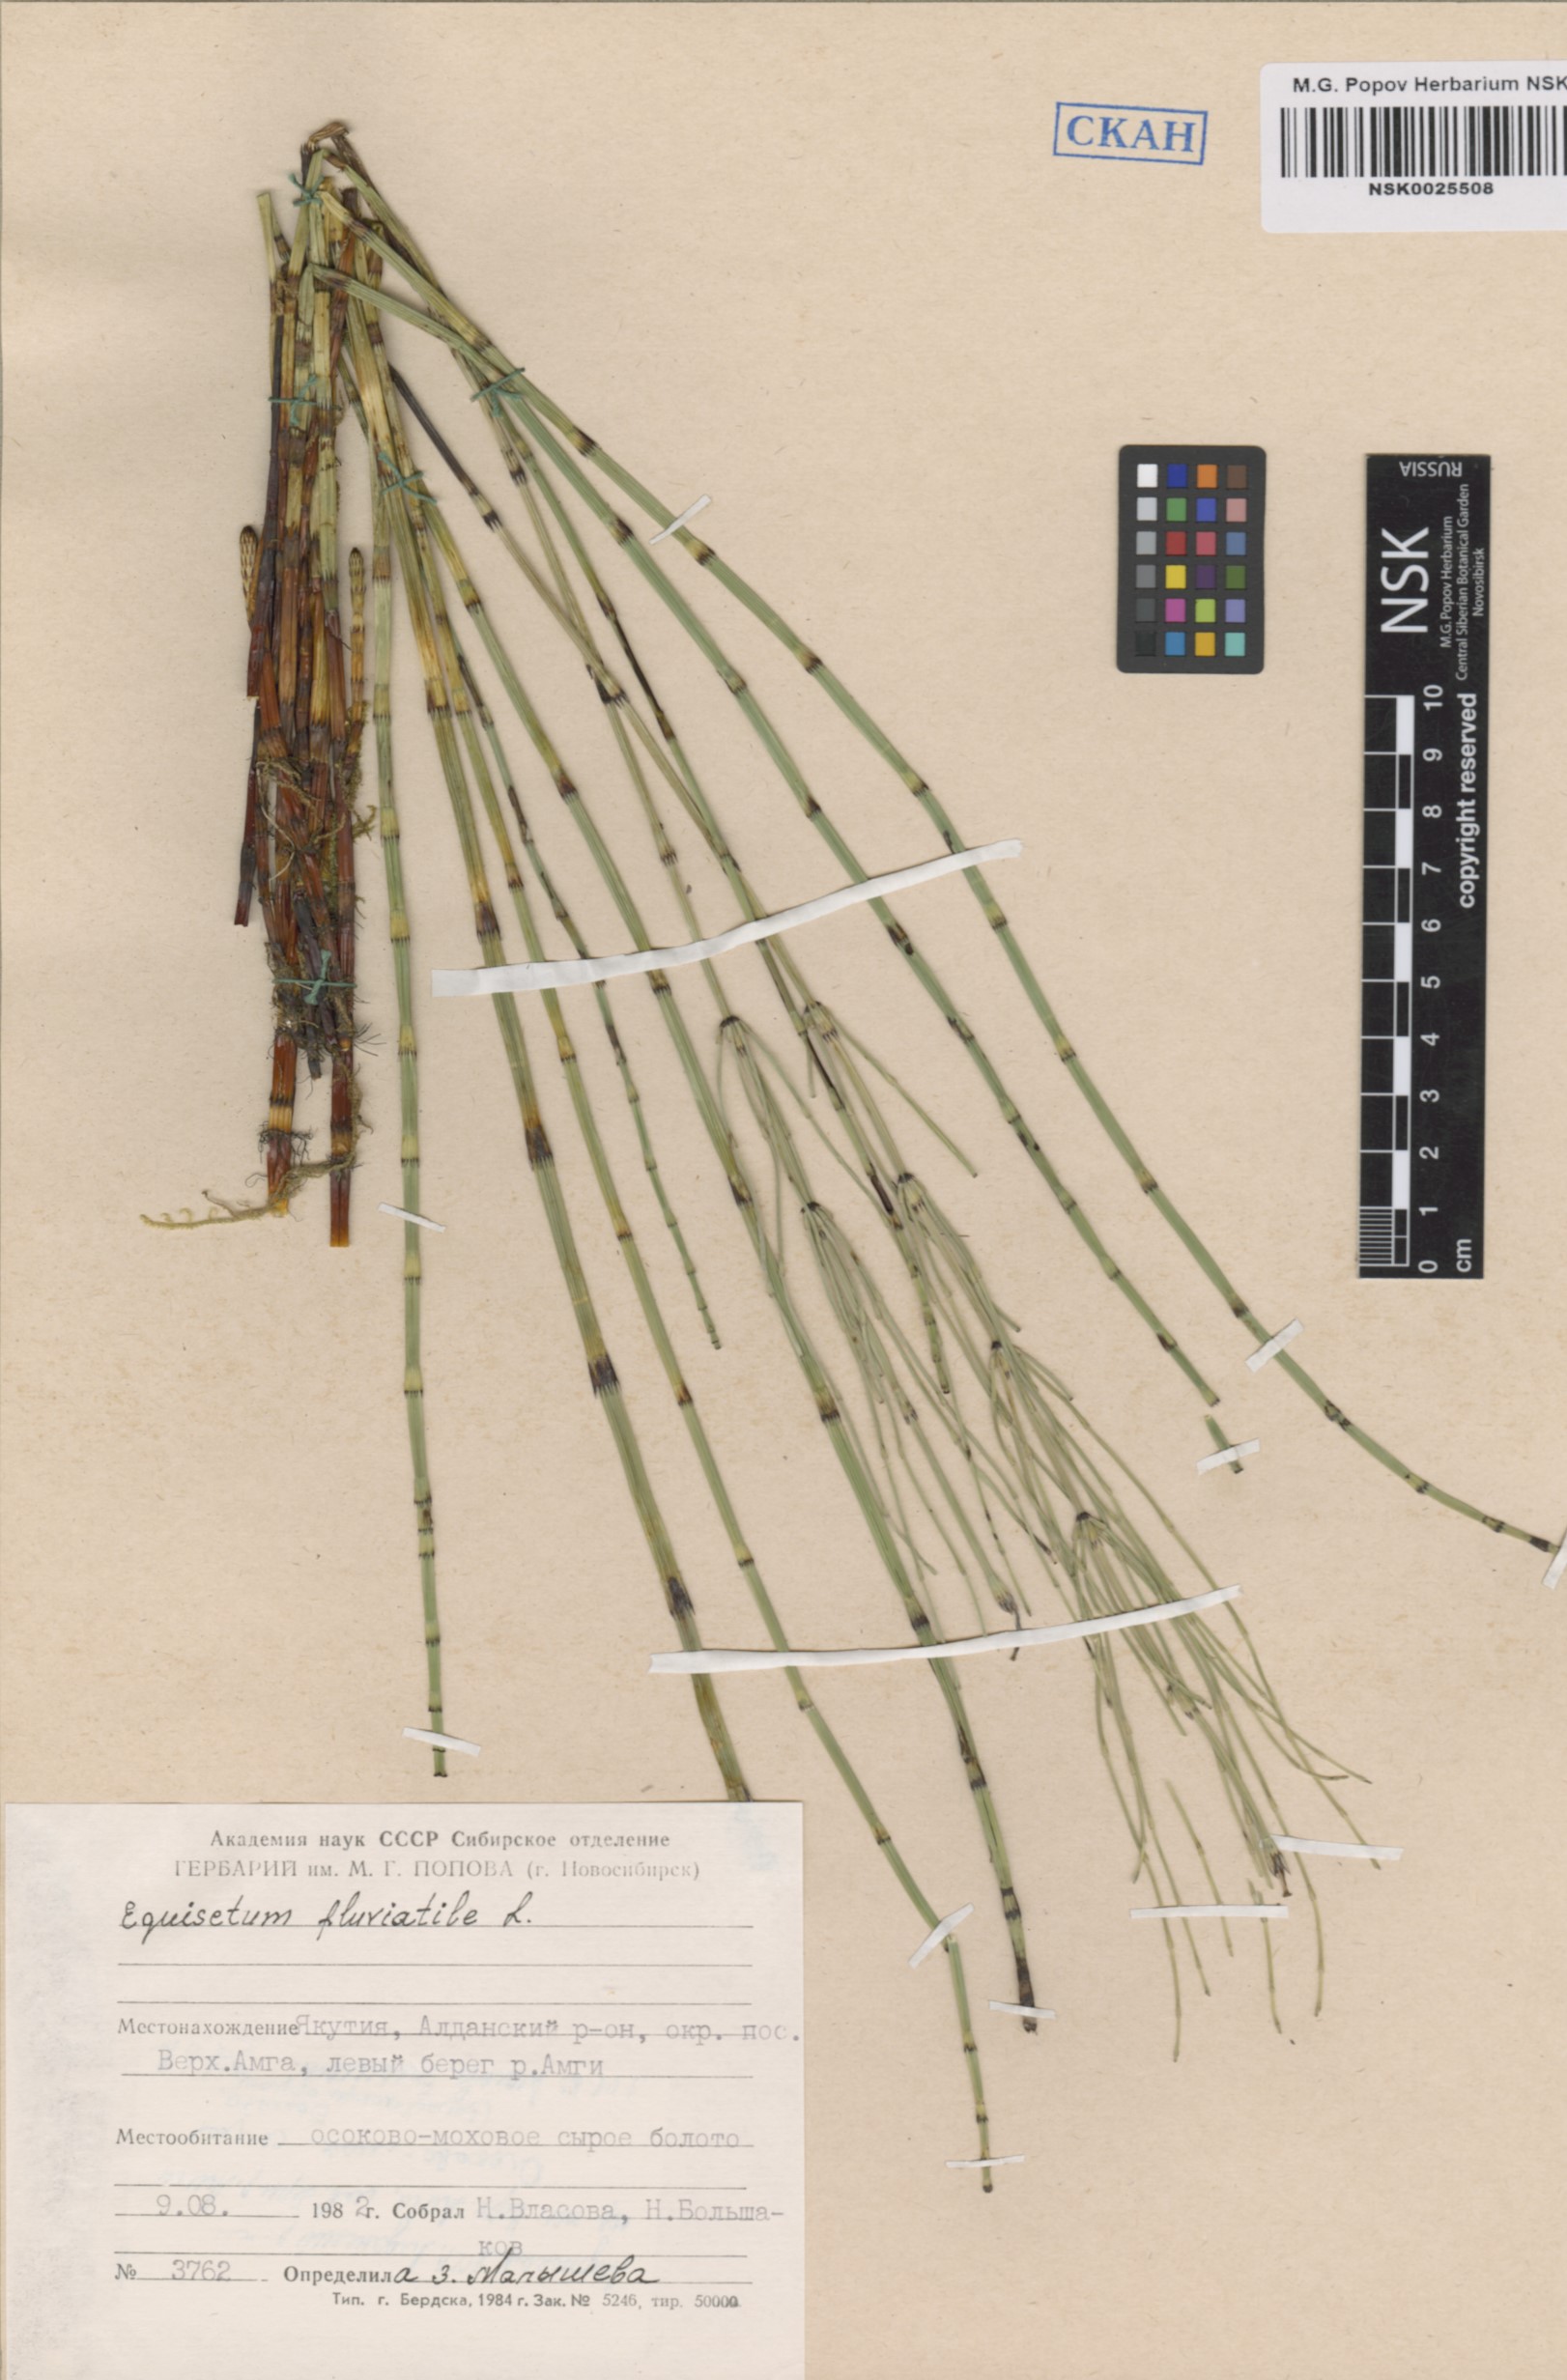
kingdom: Plantae
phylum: Tracheophyta
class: Polypodiopsida
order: Equisetales
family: Equisetaceae
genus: Equisetum
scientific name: Equisetum fluviatile
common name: Water horsetail
